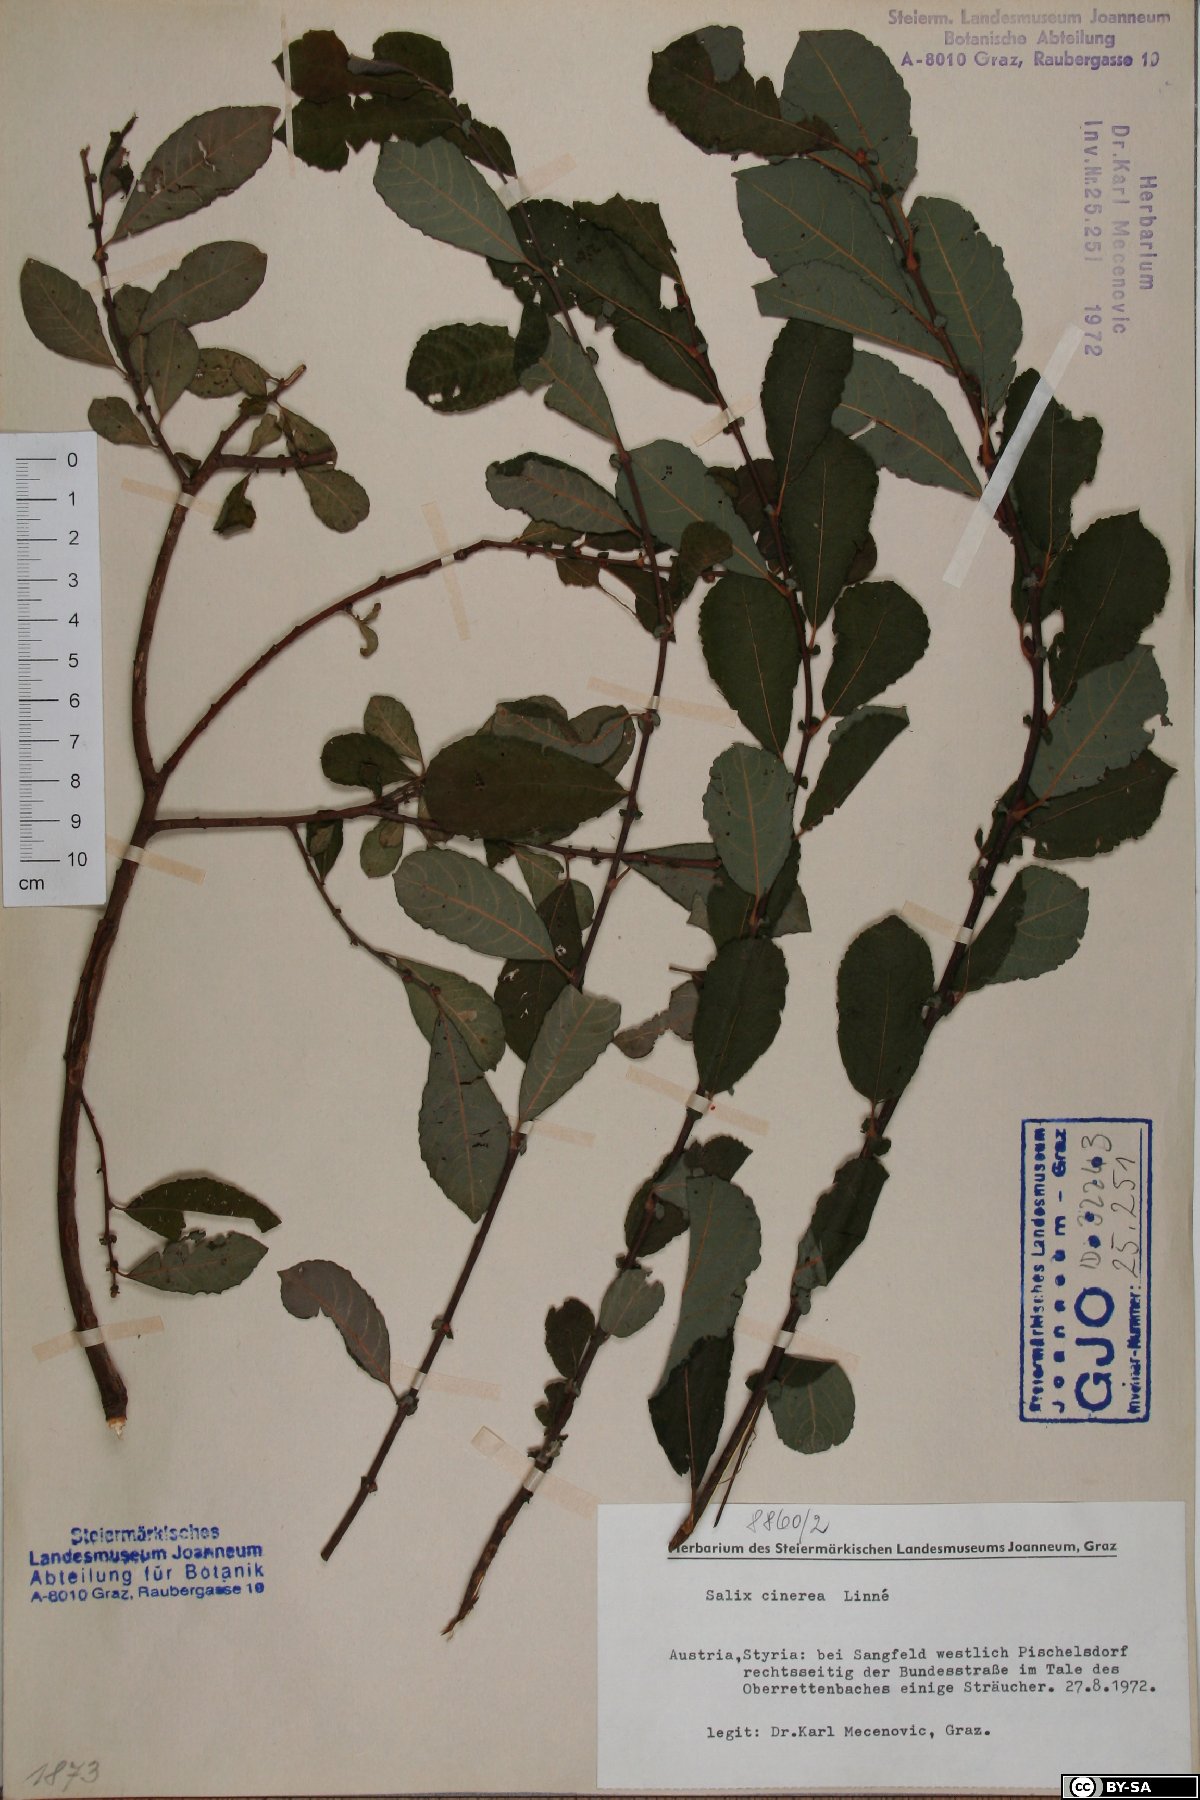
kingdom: Plantae
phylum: Tracheophyta
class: Magnoliopsida
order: Malpighiales
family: Salicaceae
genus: Salix
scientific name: Salix cinerea
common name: Common sallow
